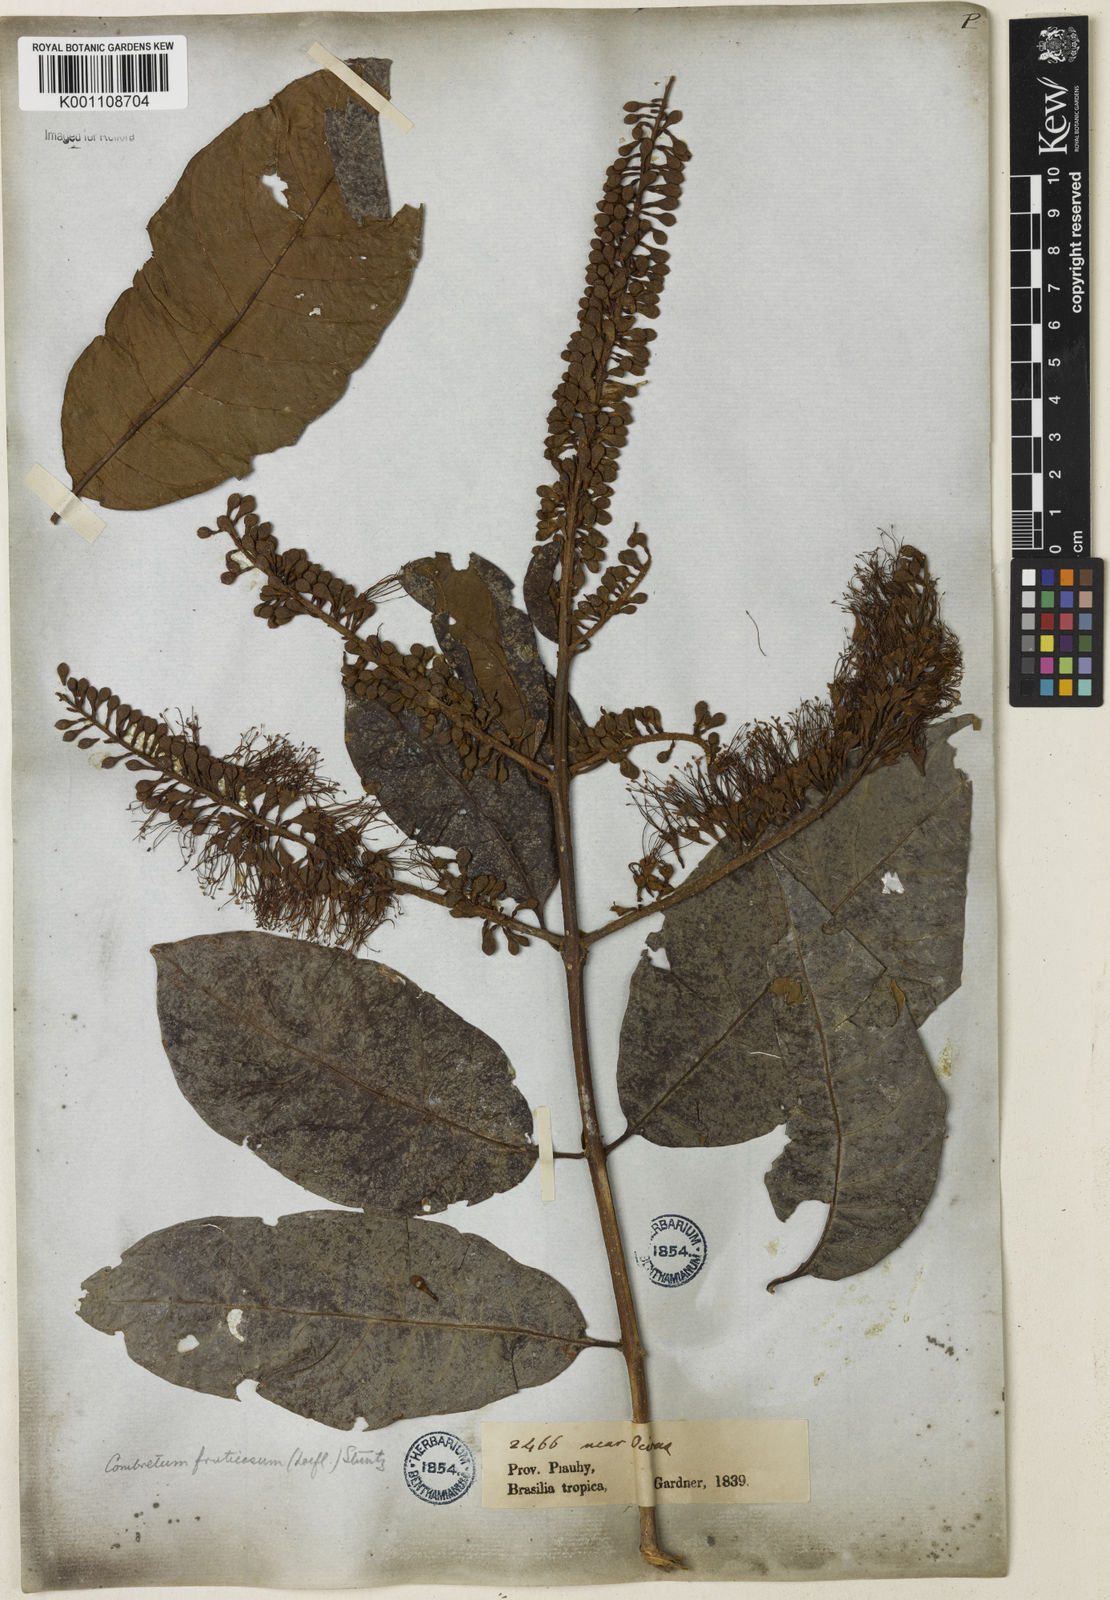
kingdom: Plantae
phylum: Tracheophyta
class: Magnoliopsida
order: Myrtales
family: Combretaceae
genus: Combretum
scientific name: Combretum fruticosum
